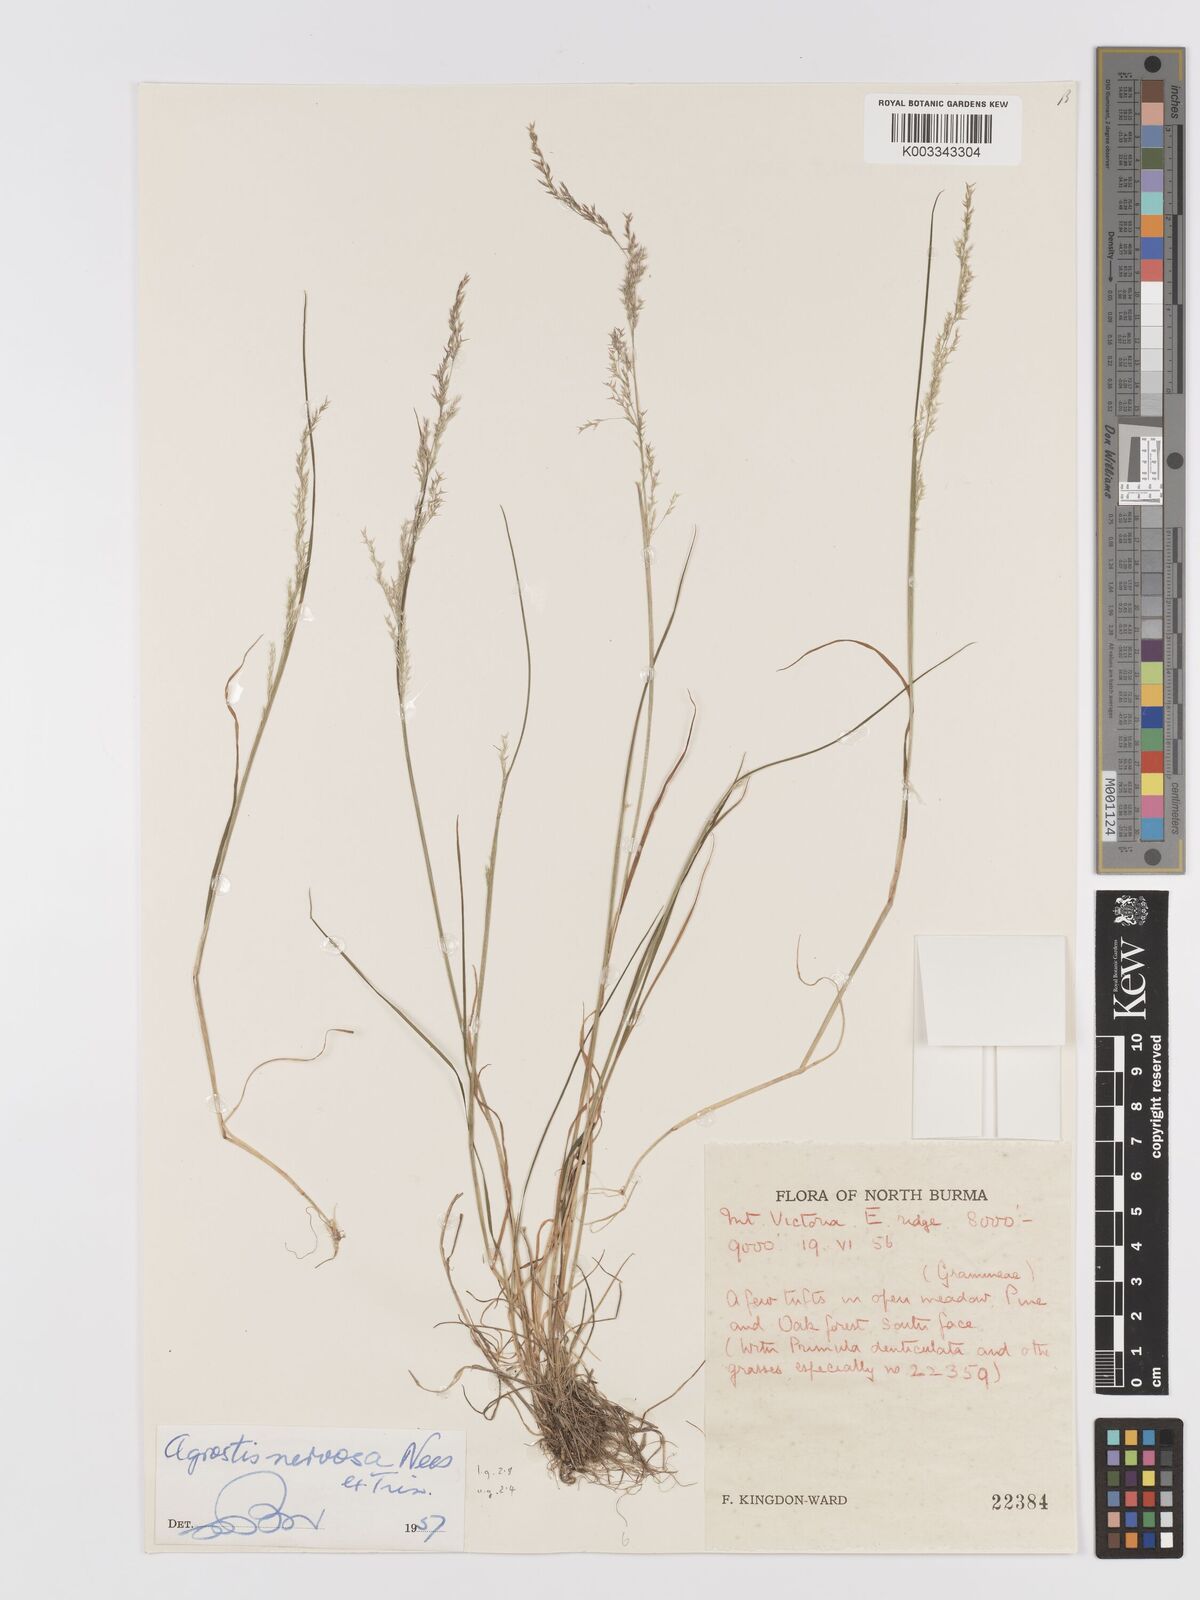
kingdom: Plantae
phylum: Tracheophyta
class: Liliopsida
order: Poales
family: Poaceae
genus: Agrostis
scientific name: Agrostis nervosa
